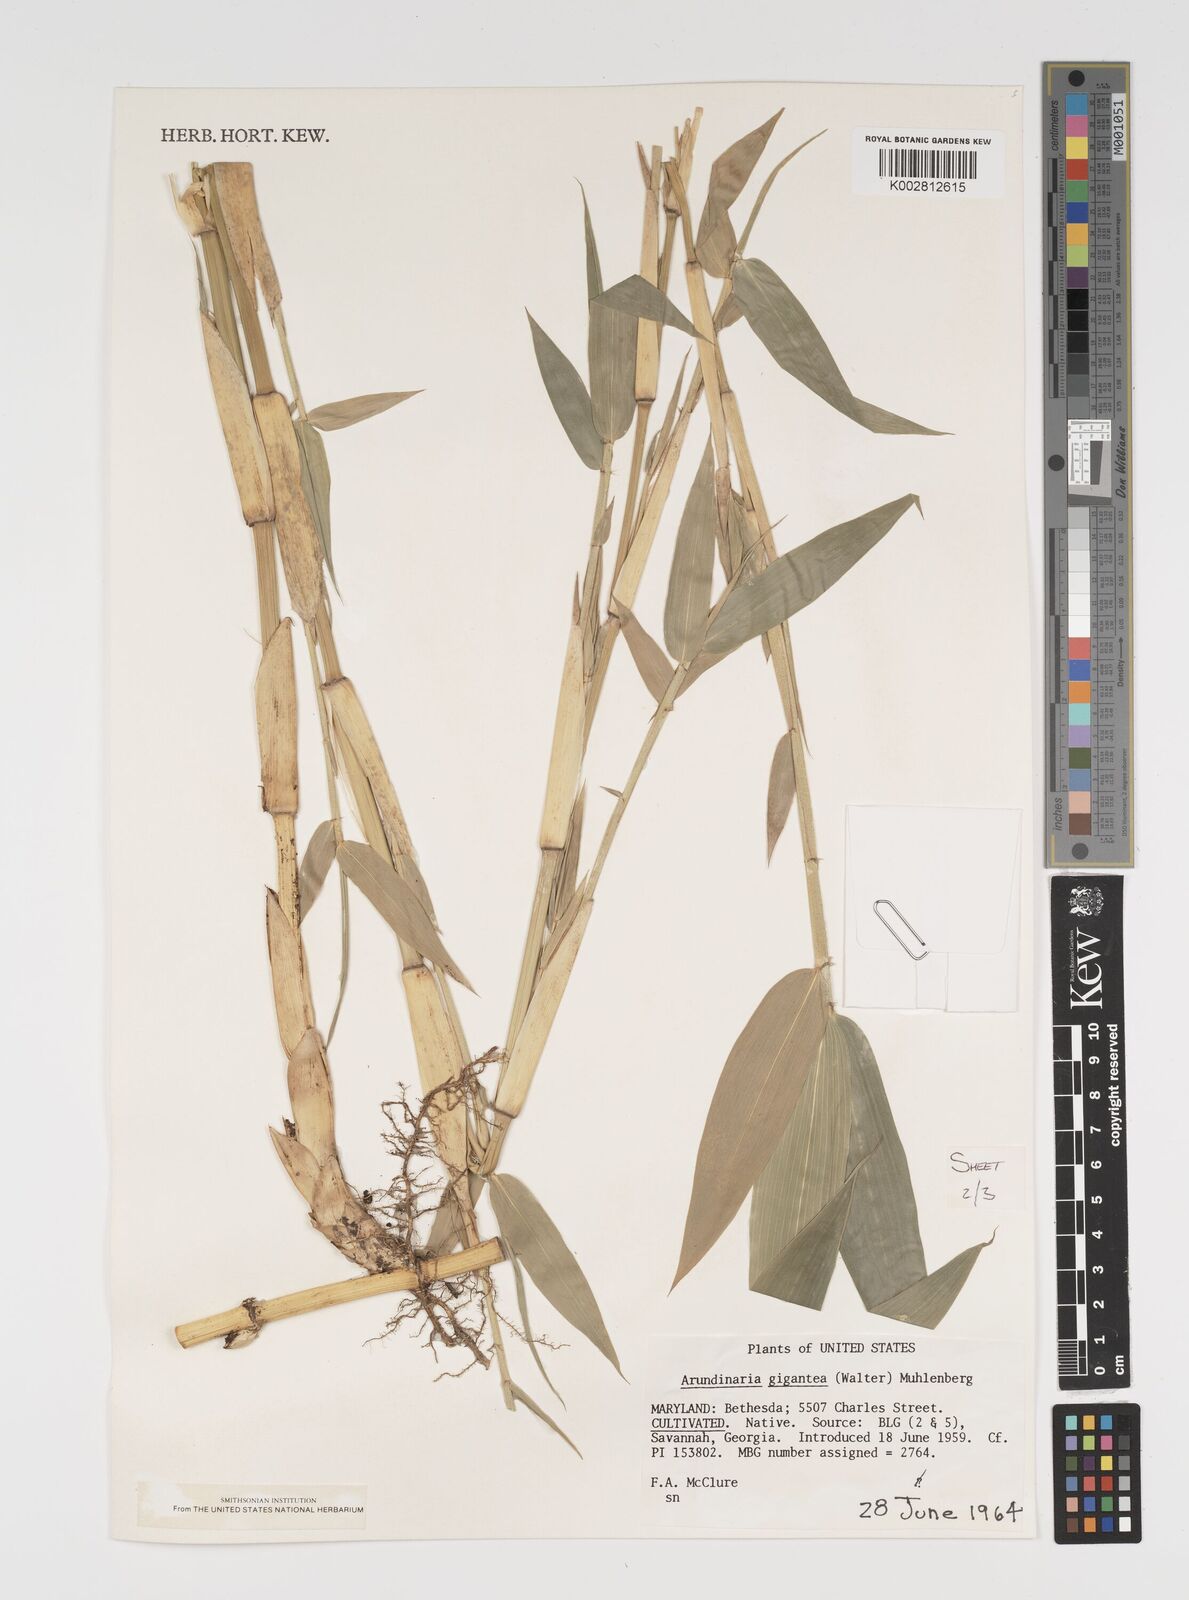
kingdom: Plantae
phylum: Tracheophyta
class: Liliopsida
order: Poales
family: Poaceae
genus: Arundinaria
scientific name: Arundinaria
